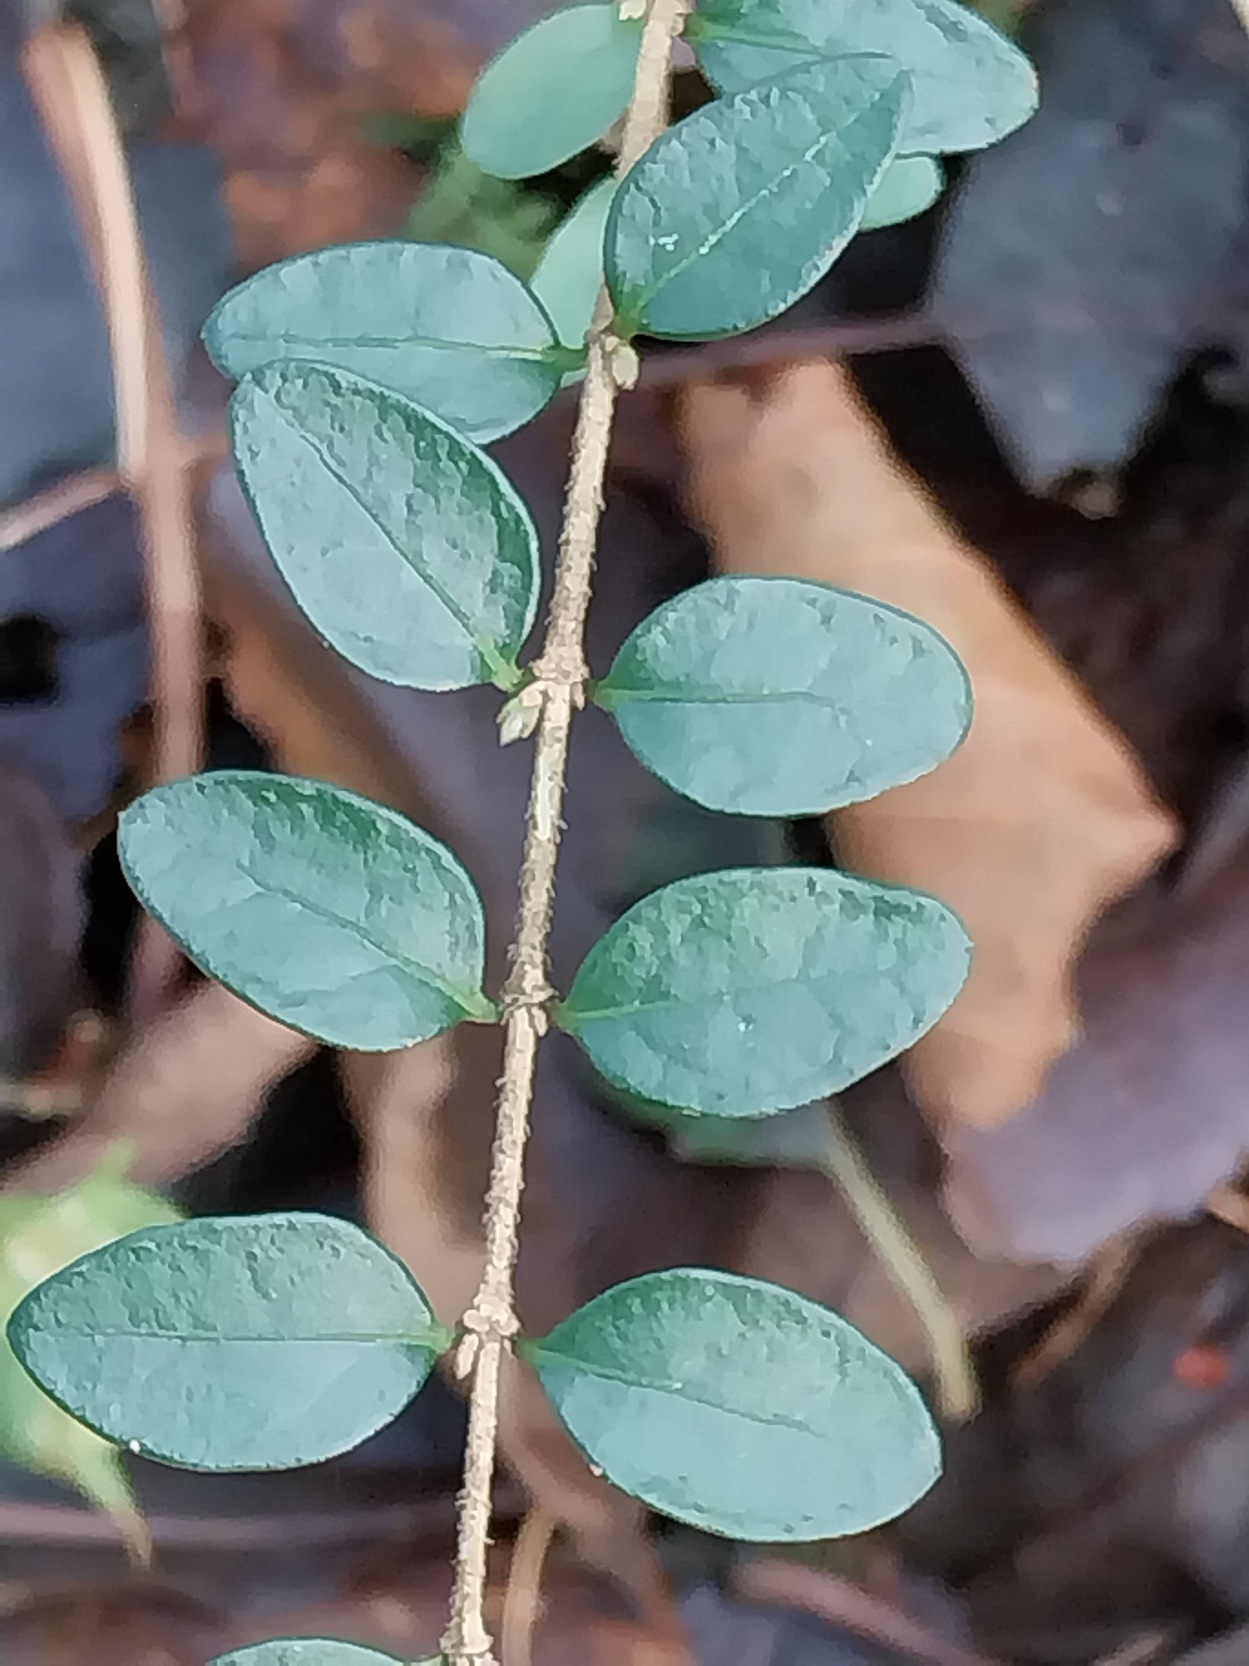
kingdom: Plantae
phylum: Tracheophyta
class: Magnoliopsida
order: Dipsacales
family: Caprifoliaceae
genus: Lonicera
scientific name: Lonicera pileata
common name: Myrte-gedeblad
